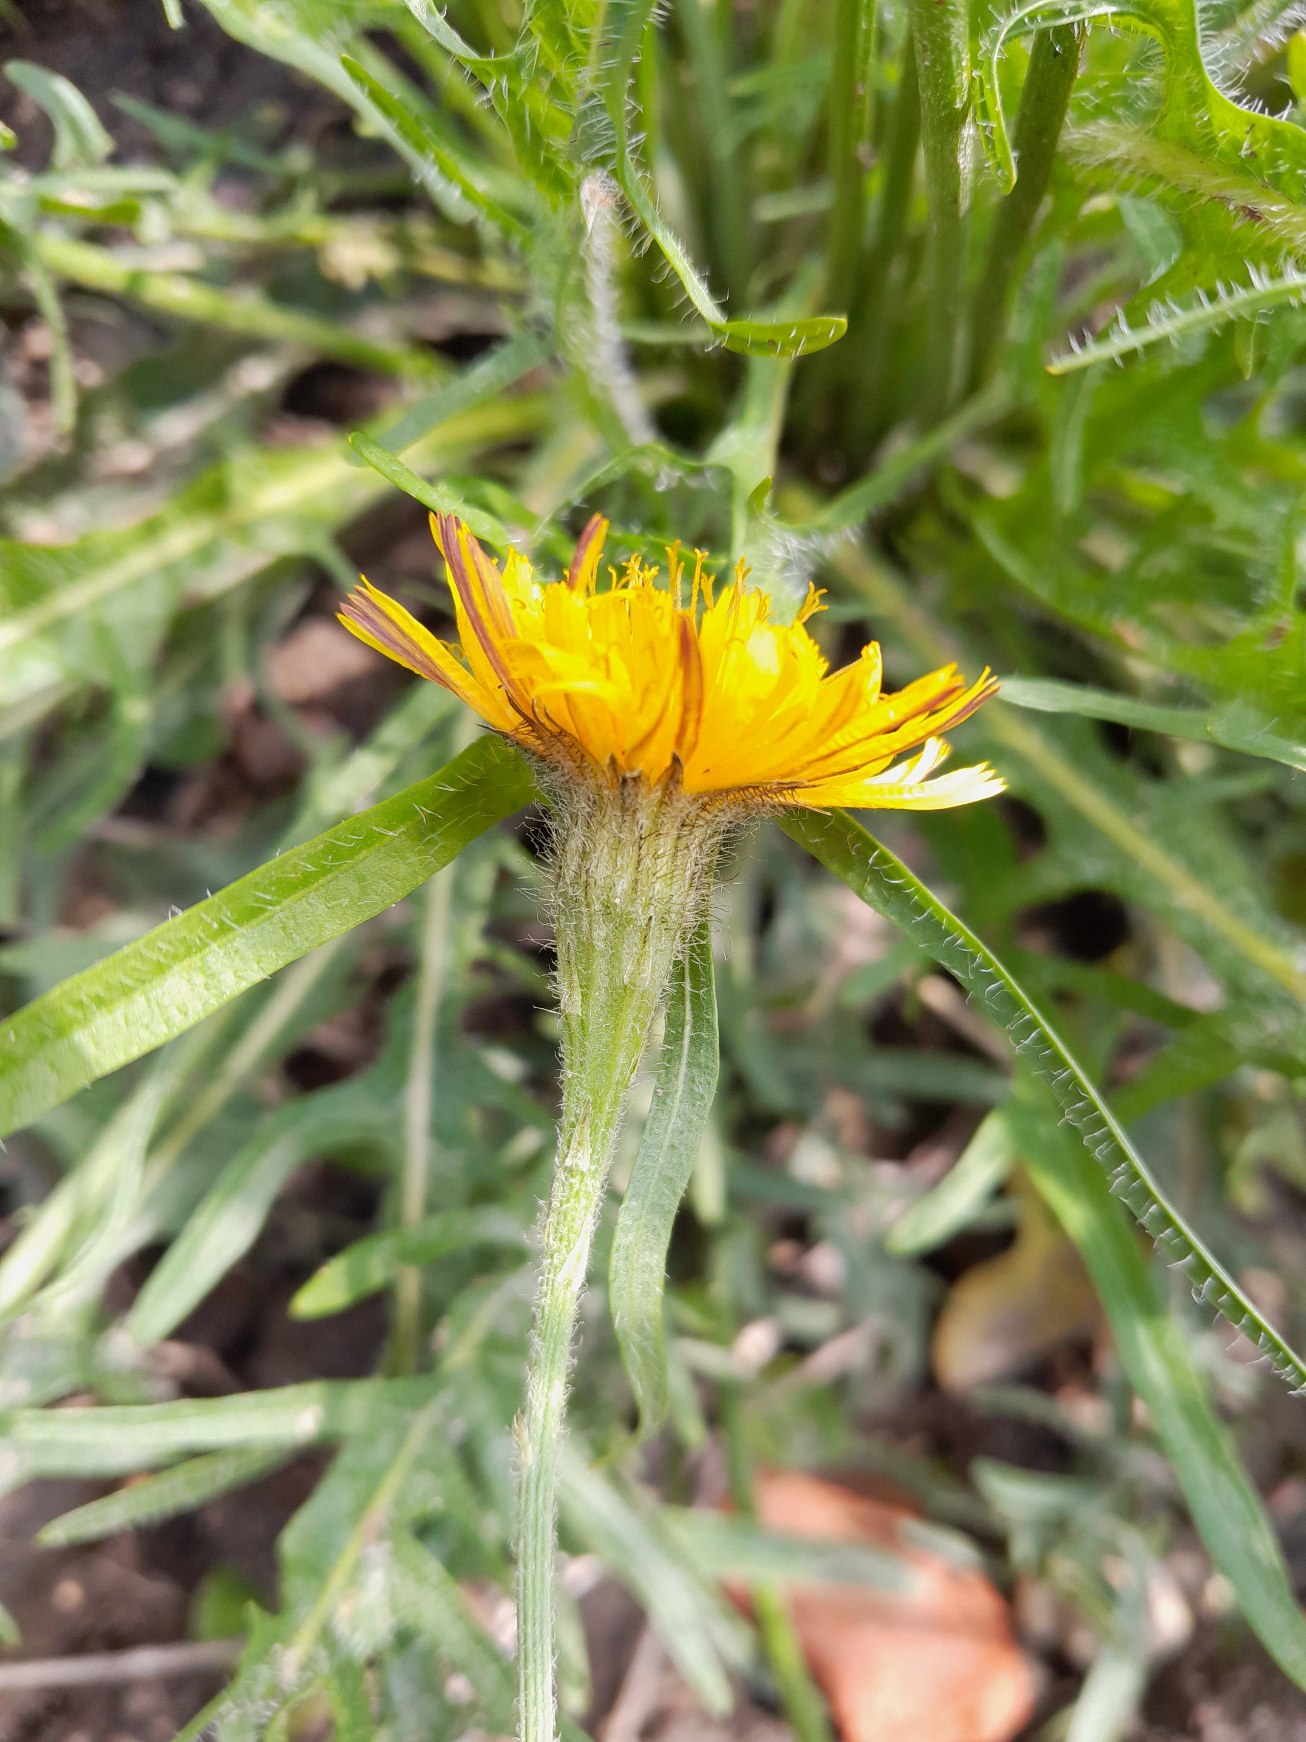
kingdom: Plantae
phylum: Tracheophyta
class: Magnoliopsida
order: Asterales
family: Asteraceae
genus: Scorzoneroides
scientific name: Scorzoneroides autumnalis
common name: Høst-borst
